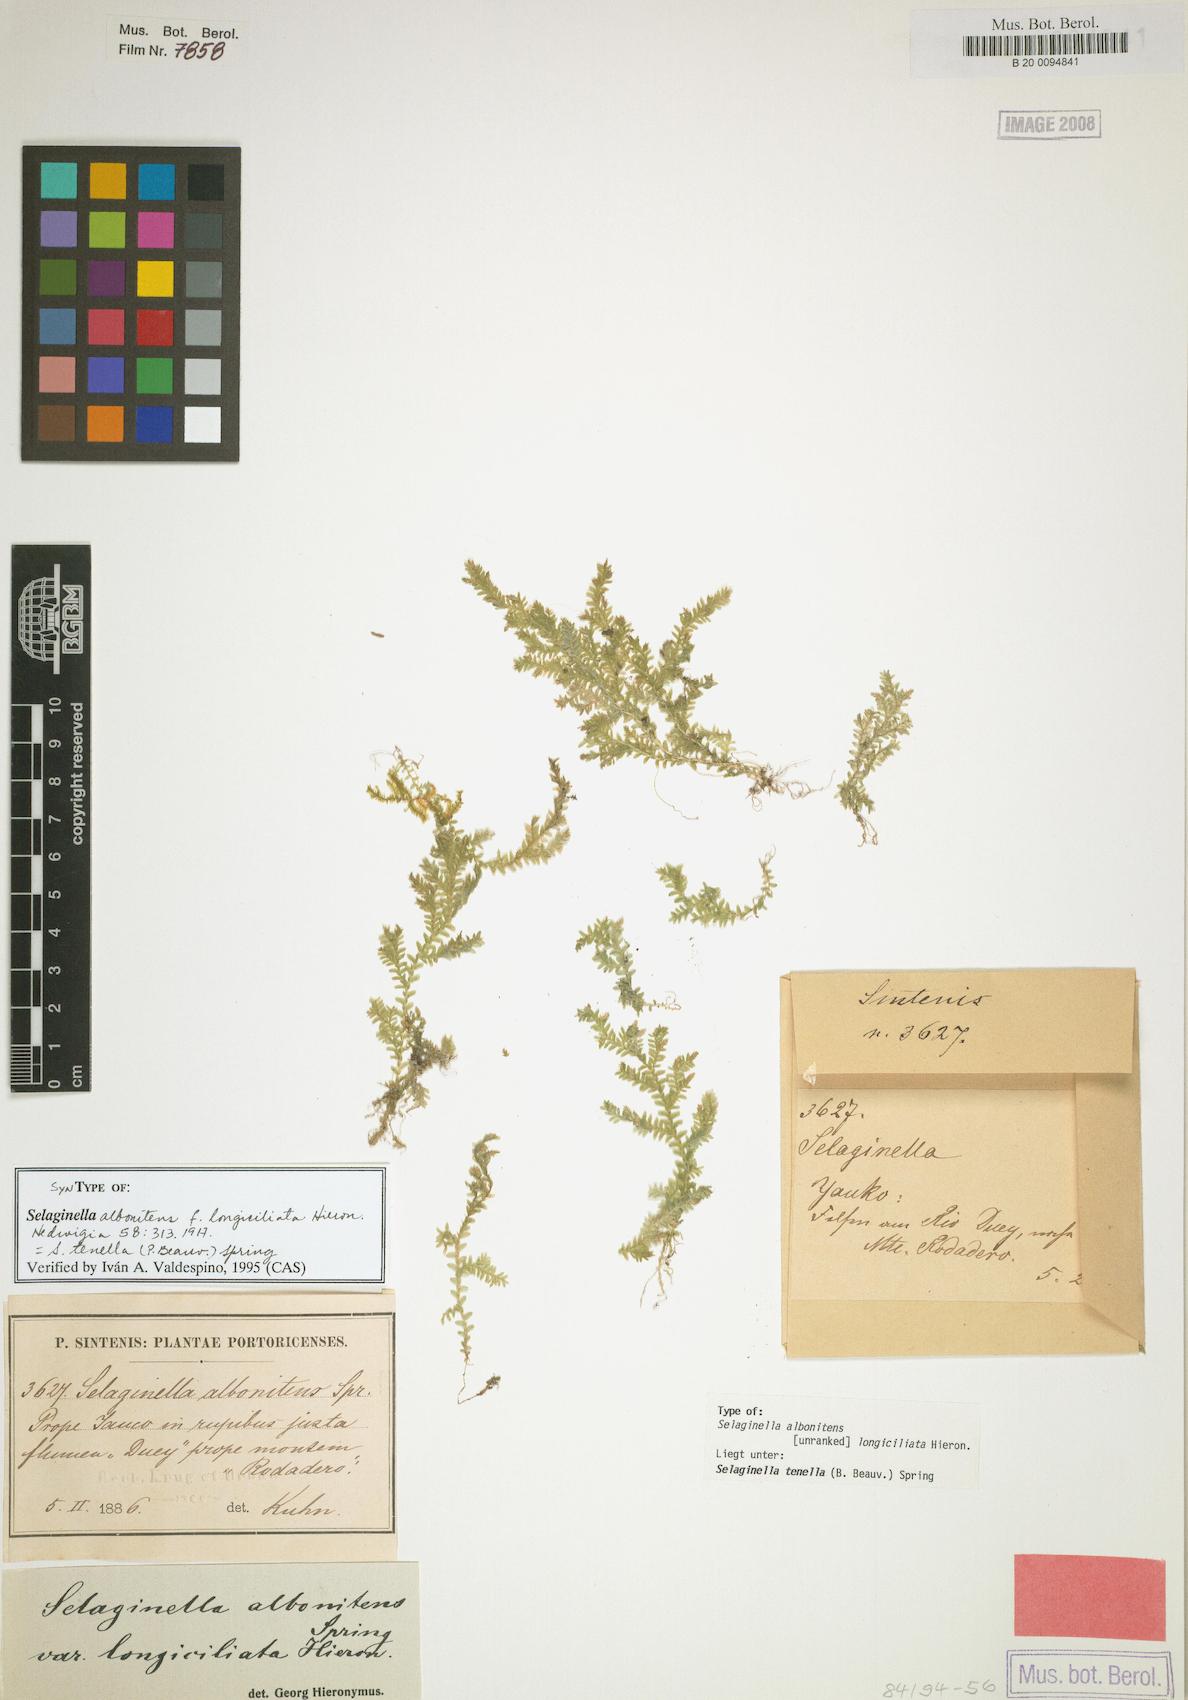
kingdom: Plantae
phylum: Tracheophyta
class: Lycopodiopsida
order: Selaginellales
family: Selaginellaceae
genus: Selaginella
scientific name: Selaginella tenella
